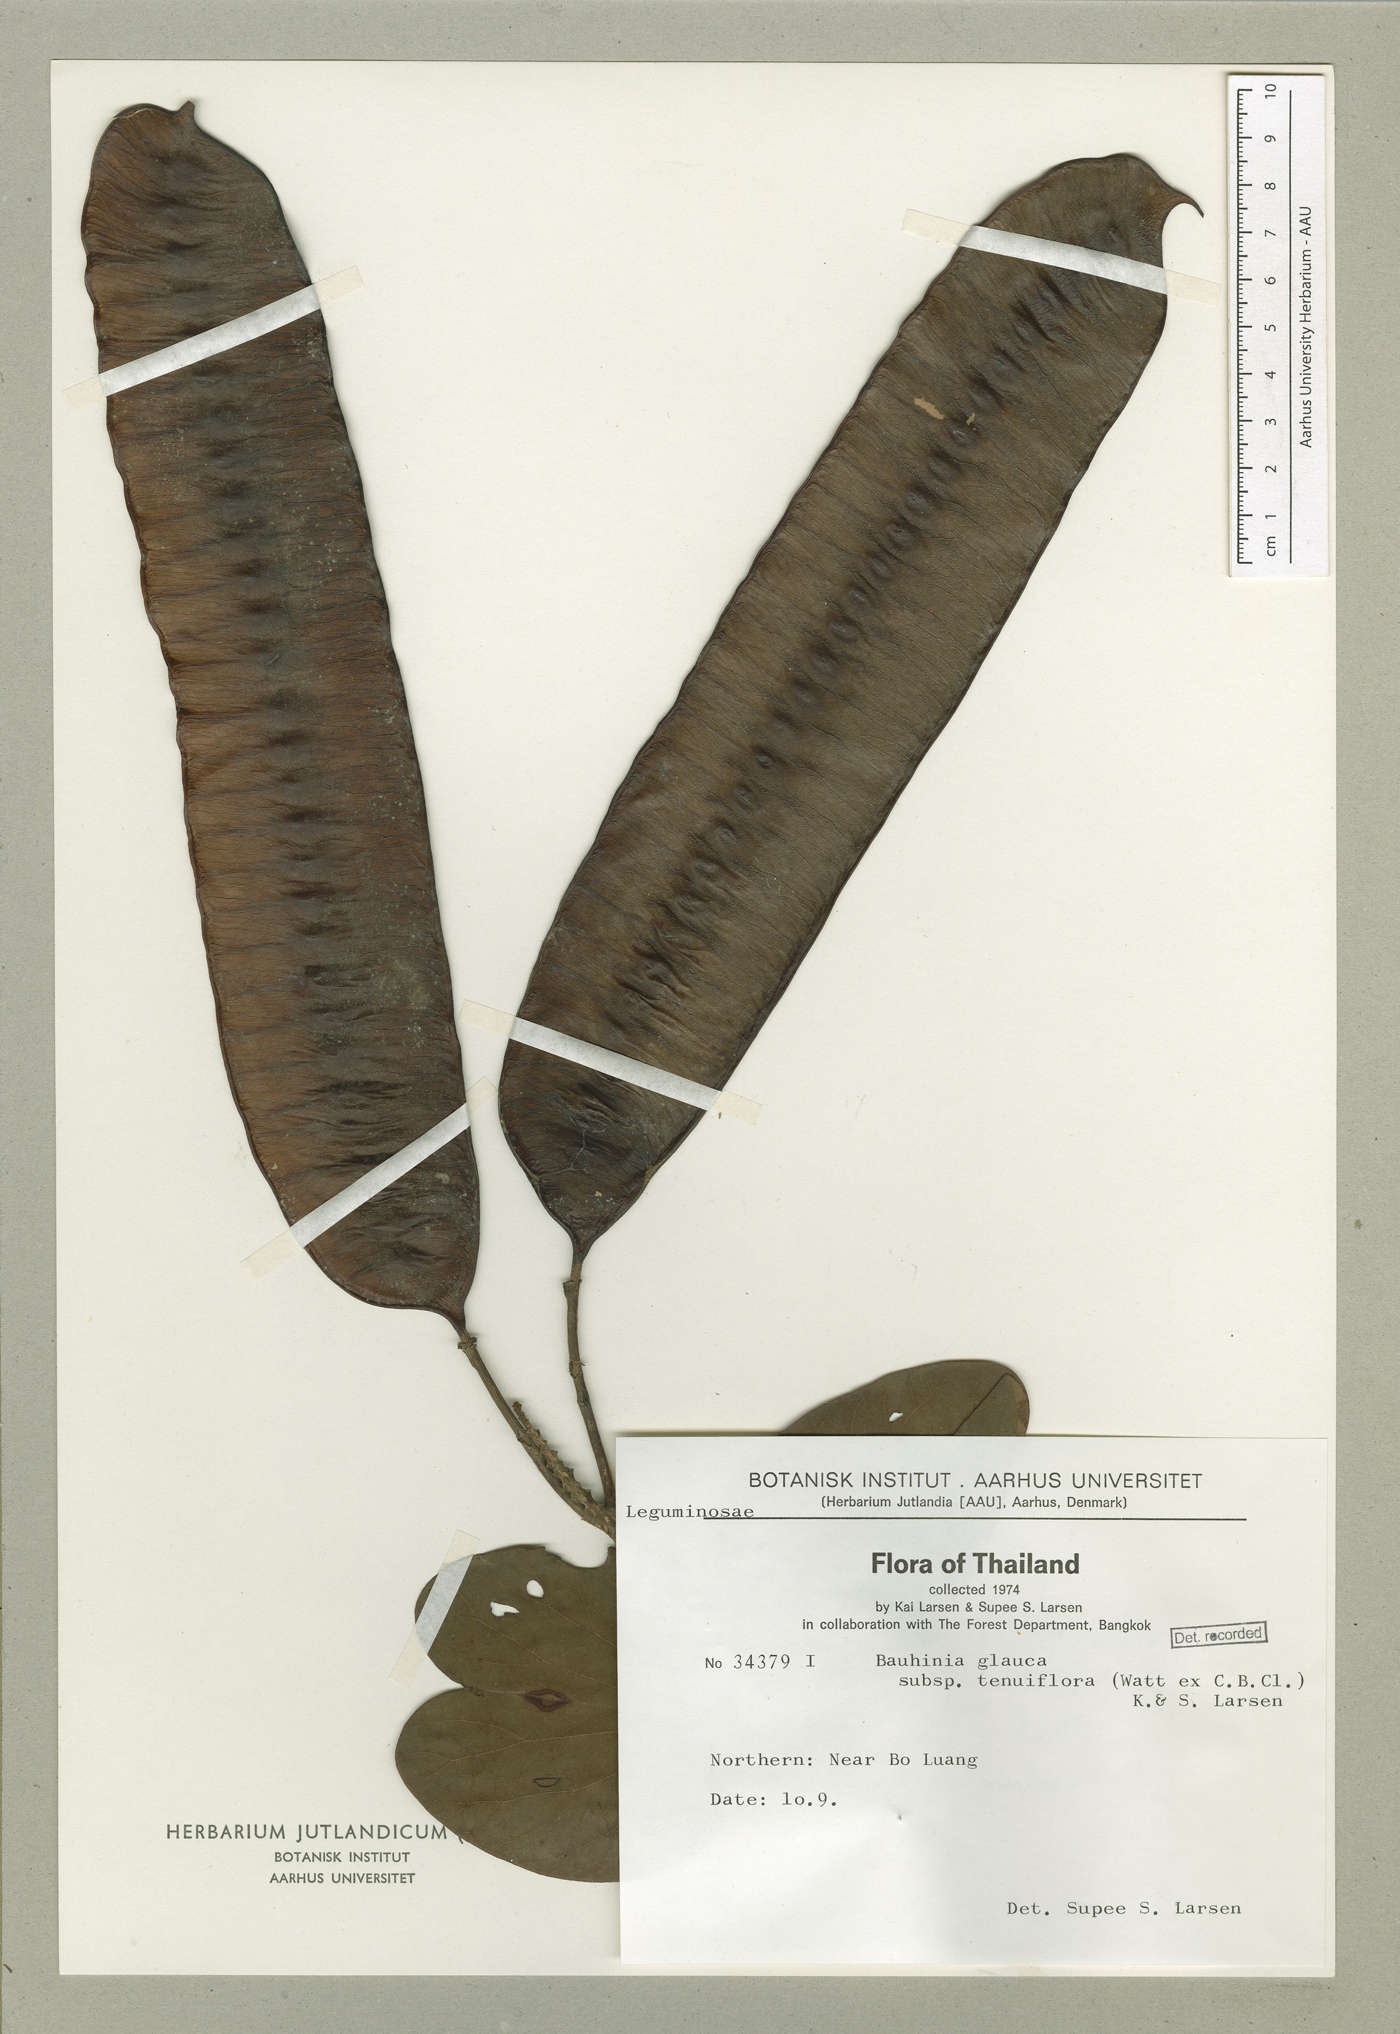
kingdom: Plantae
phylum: Tracheophyta
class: Magnoliopsida
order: Fabales
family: Fabaceae
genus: Cheniella
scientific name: Cheniella tenuiflora
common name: Bauhinia
